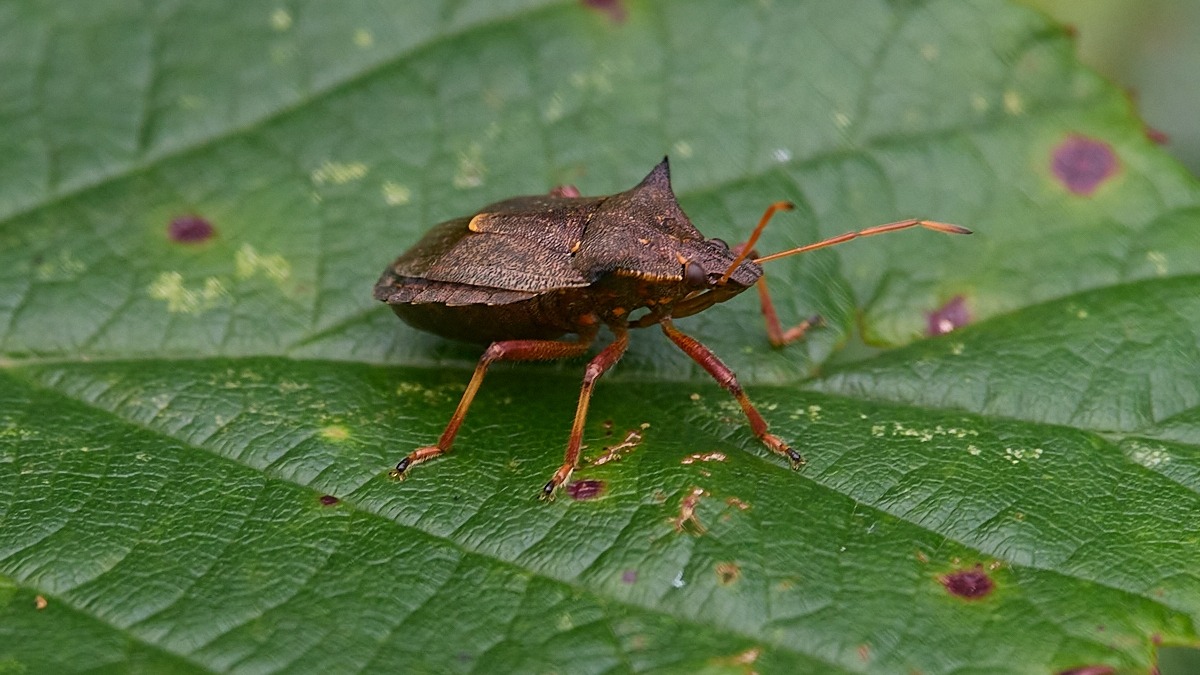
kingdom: Animalia
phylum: Arthropoda
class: Insecta
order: Hemiptera
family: Pentatomidae
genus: Picromerus
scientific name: Picromerus bidens
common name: Torntæge
